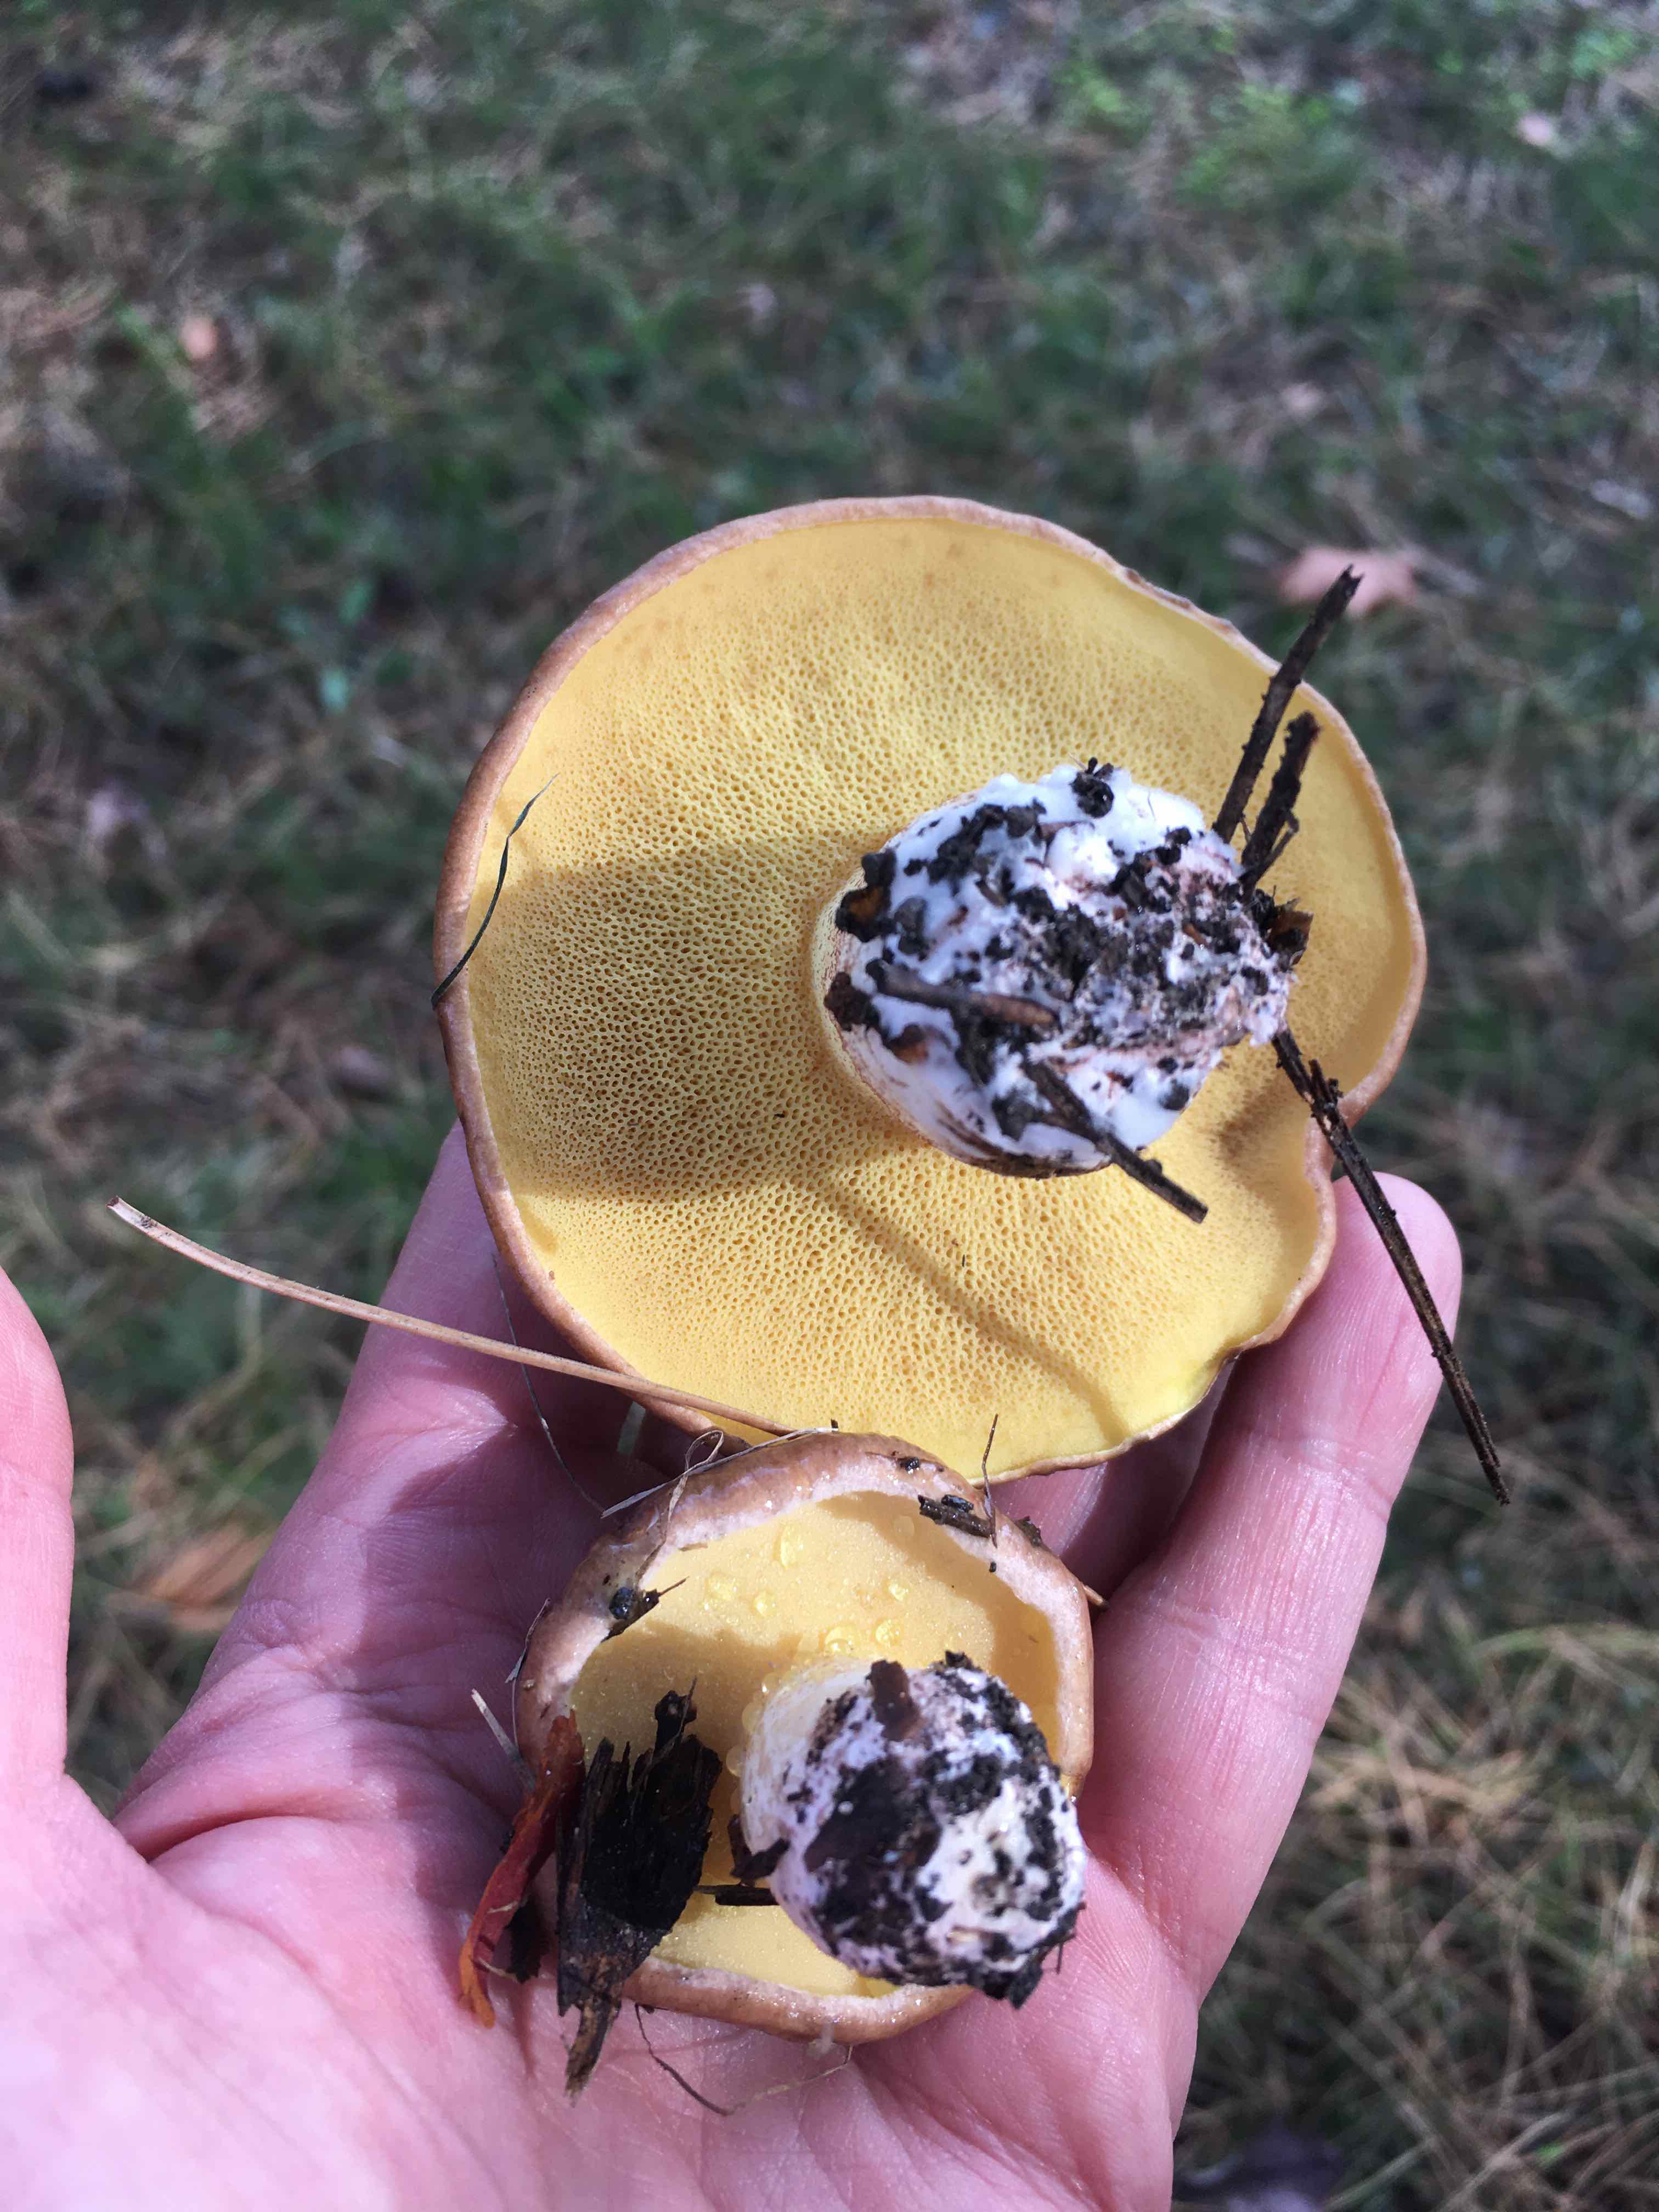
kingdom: Fungi
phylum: Basidiomycota
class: Agaricomycetes
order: Boletales
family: Suillaceae
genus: Suillus
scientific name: Suillus granulatus
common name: kornet slimrørhat
